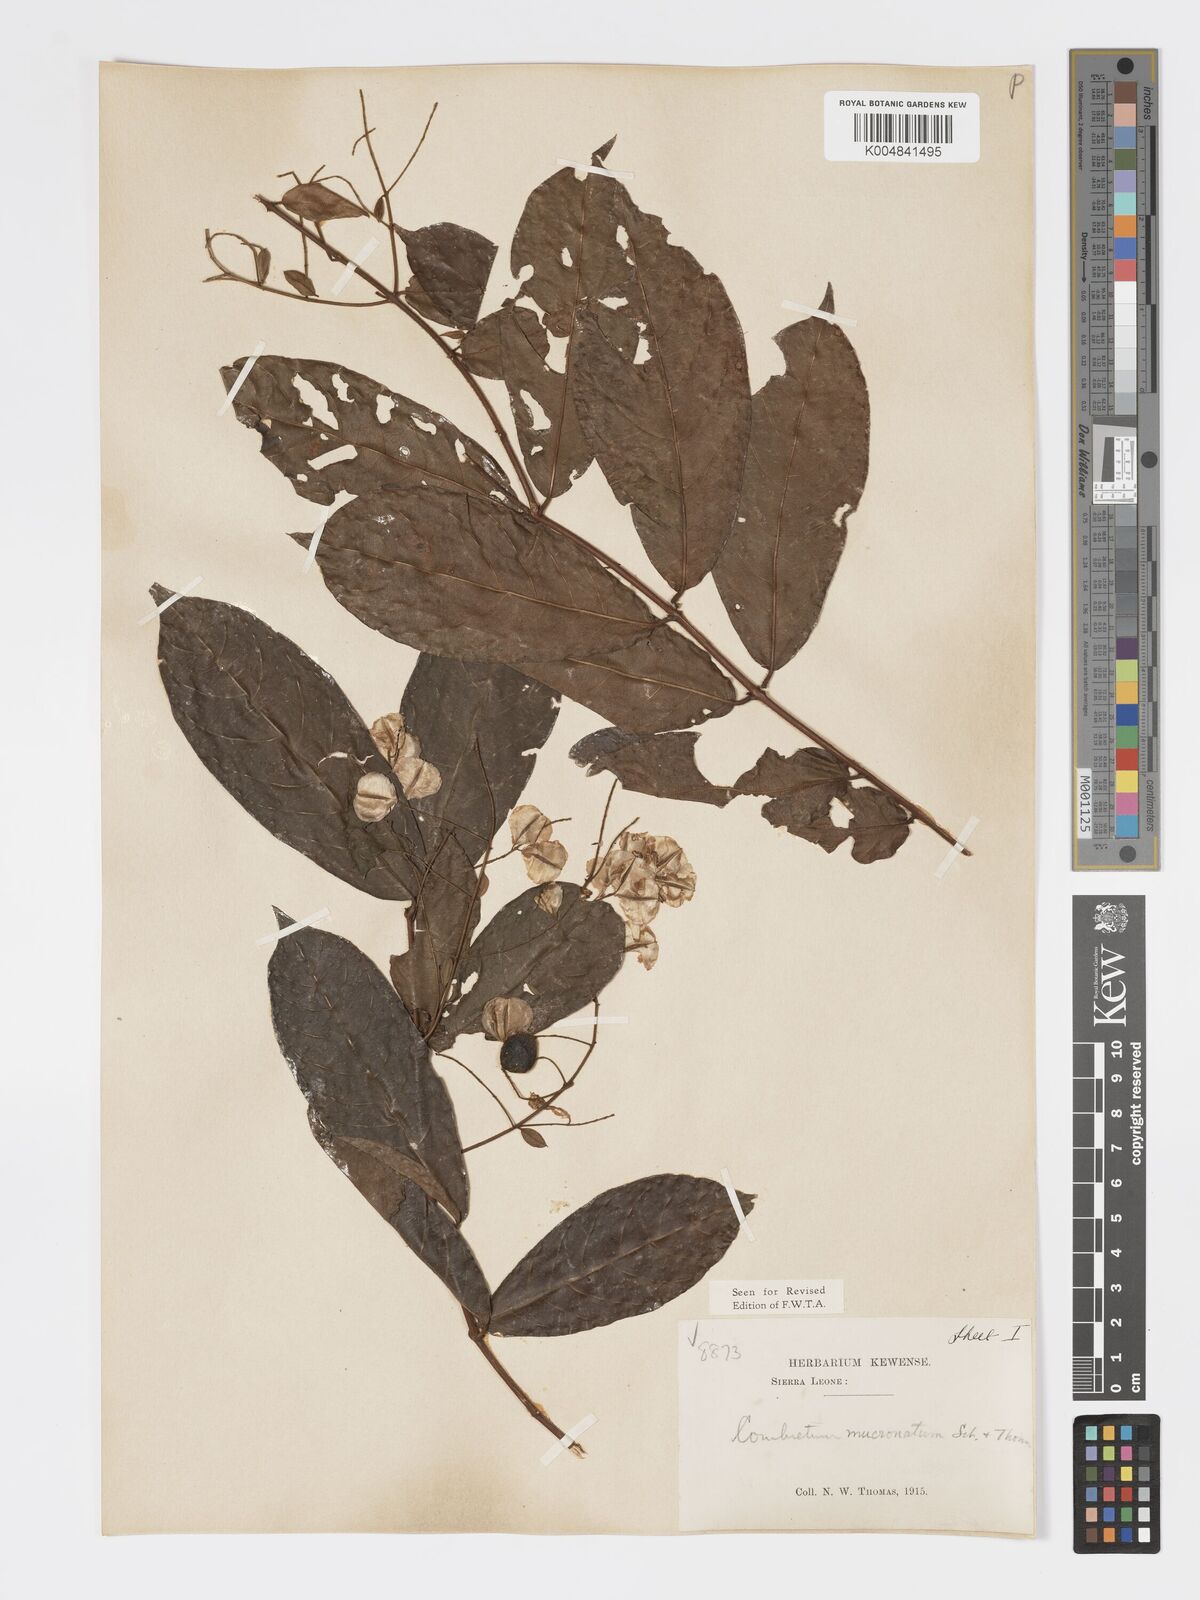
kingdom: Plantae
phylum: Tracheophyta
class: Magnoliopsida
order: Myrtales
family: Combretaceae
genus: Combretum
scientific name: Combretum mucronatum
